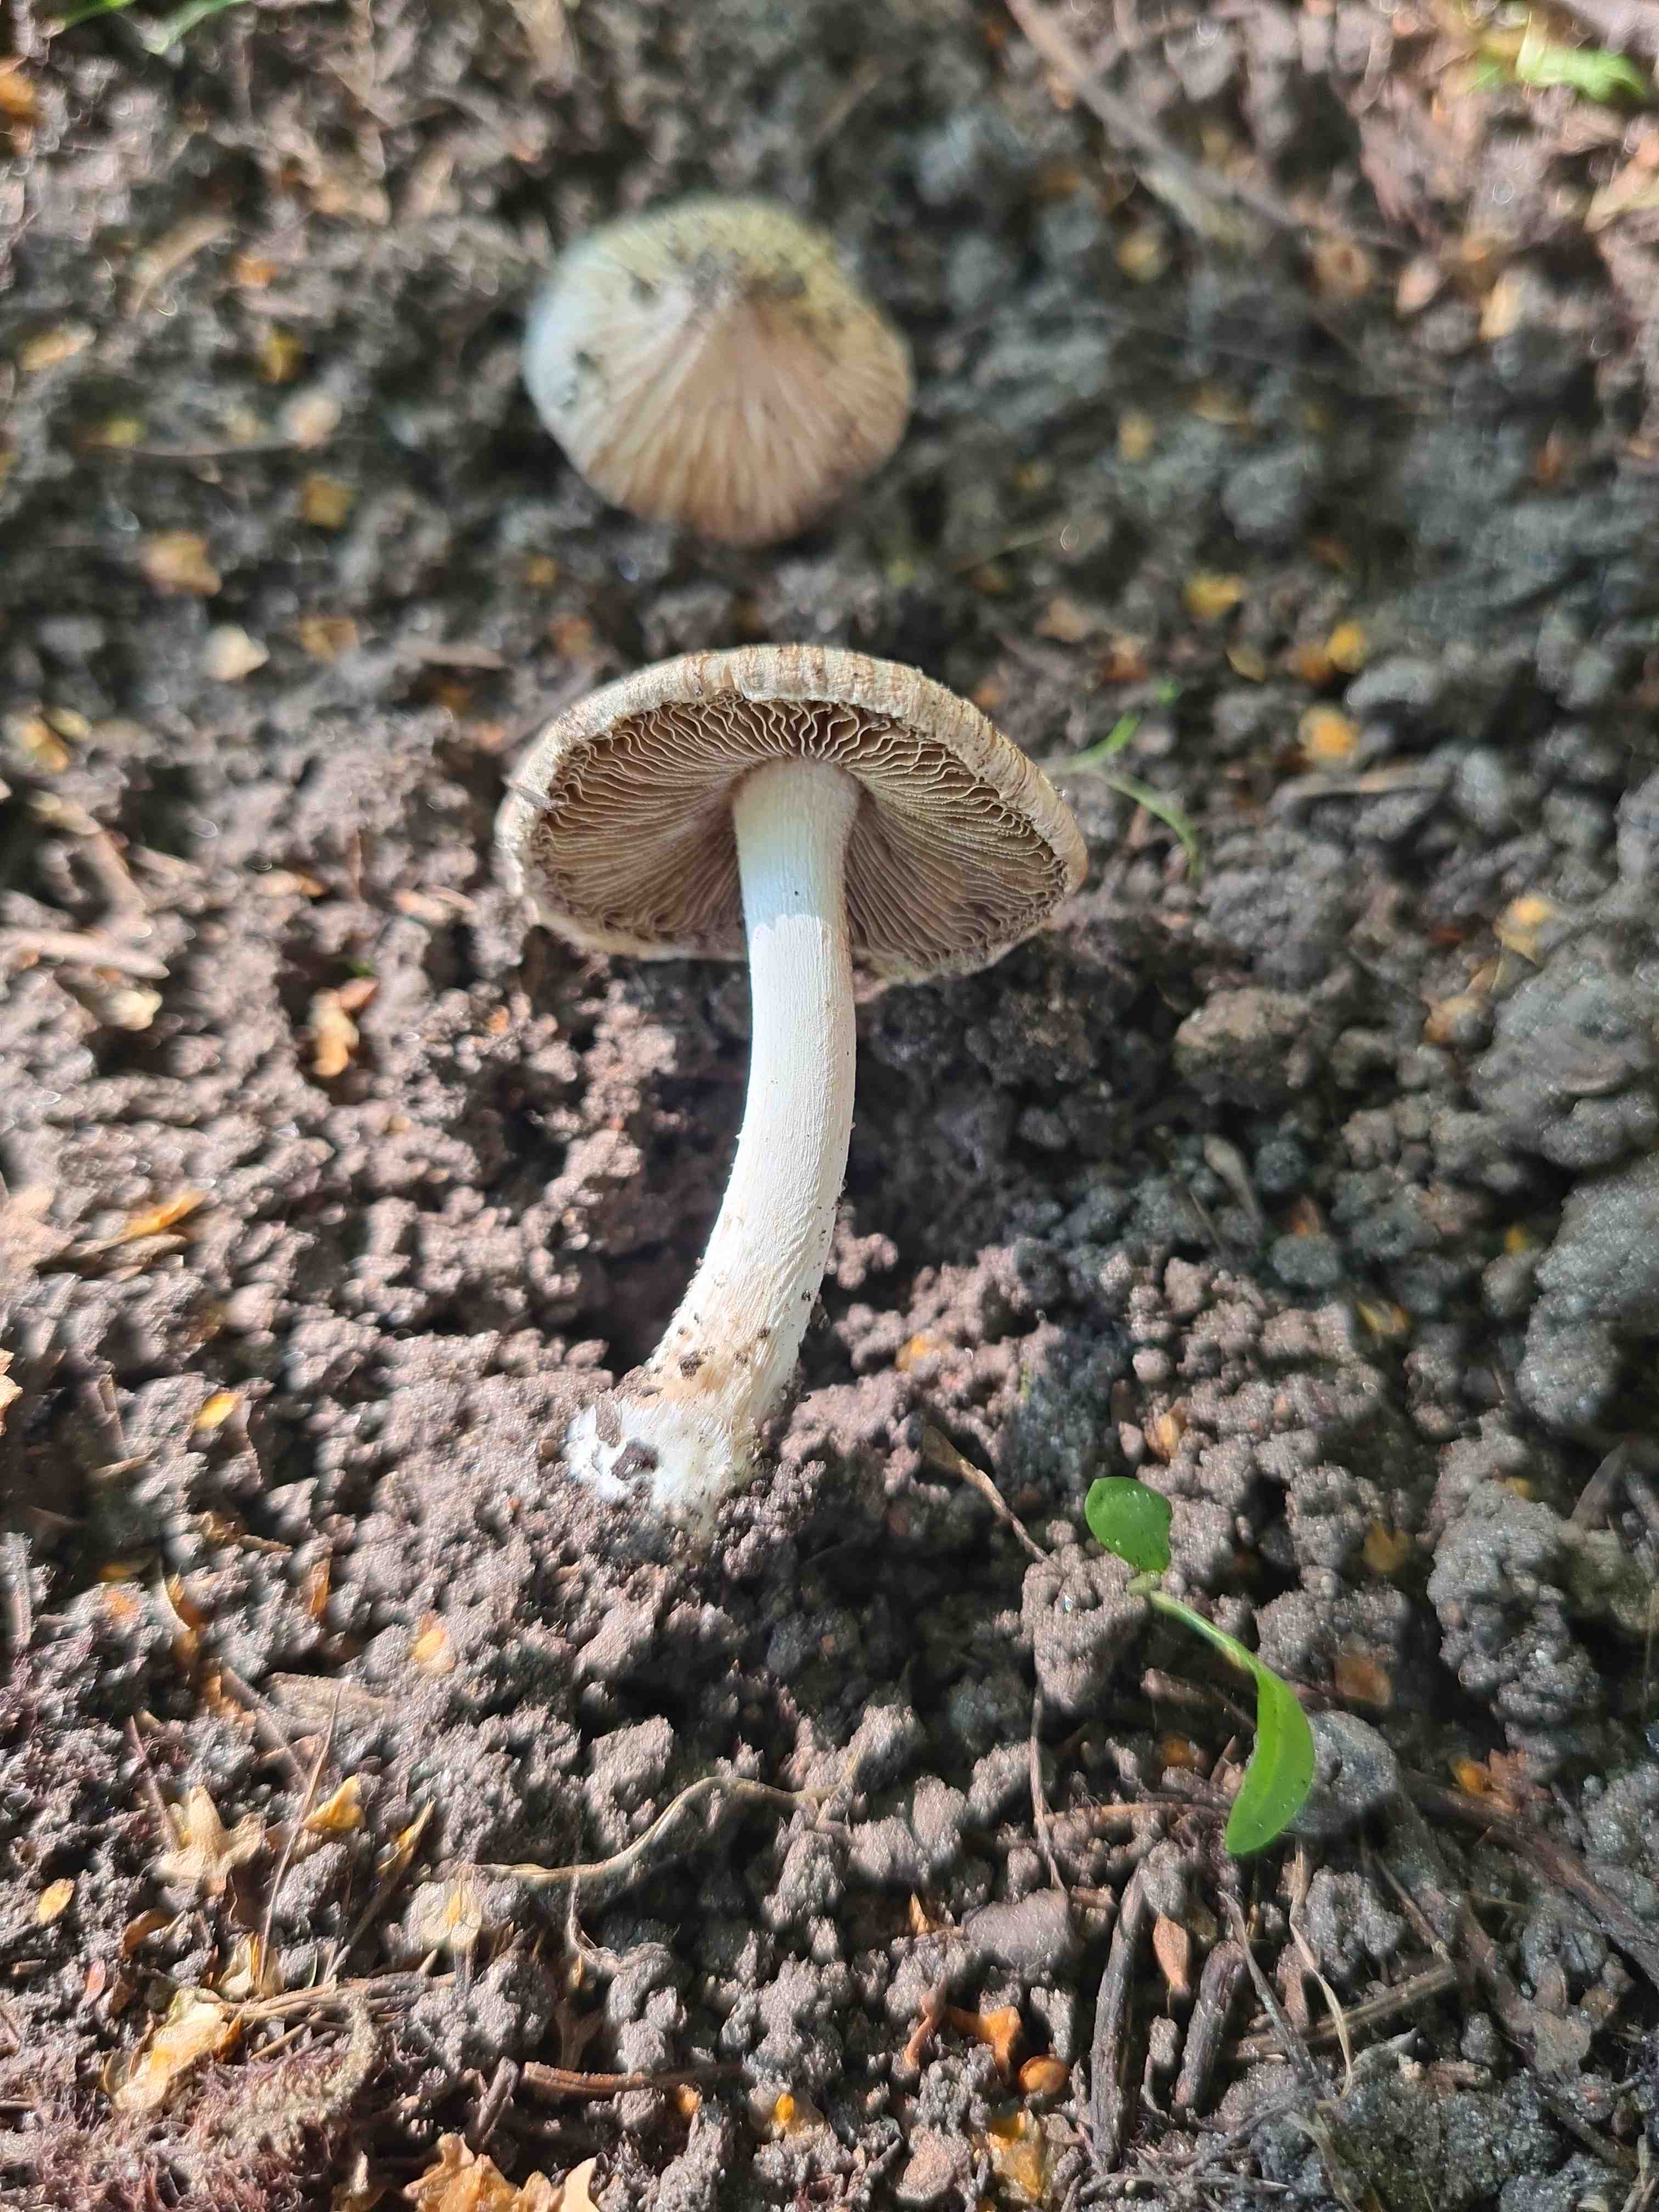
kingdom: Fungi
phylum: Basidiomycota
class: Agaricomycetes
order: Agaricales
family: Inocybaceae
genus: Pseudosperma
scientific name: Pseudosperma
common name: trævlhat
